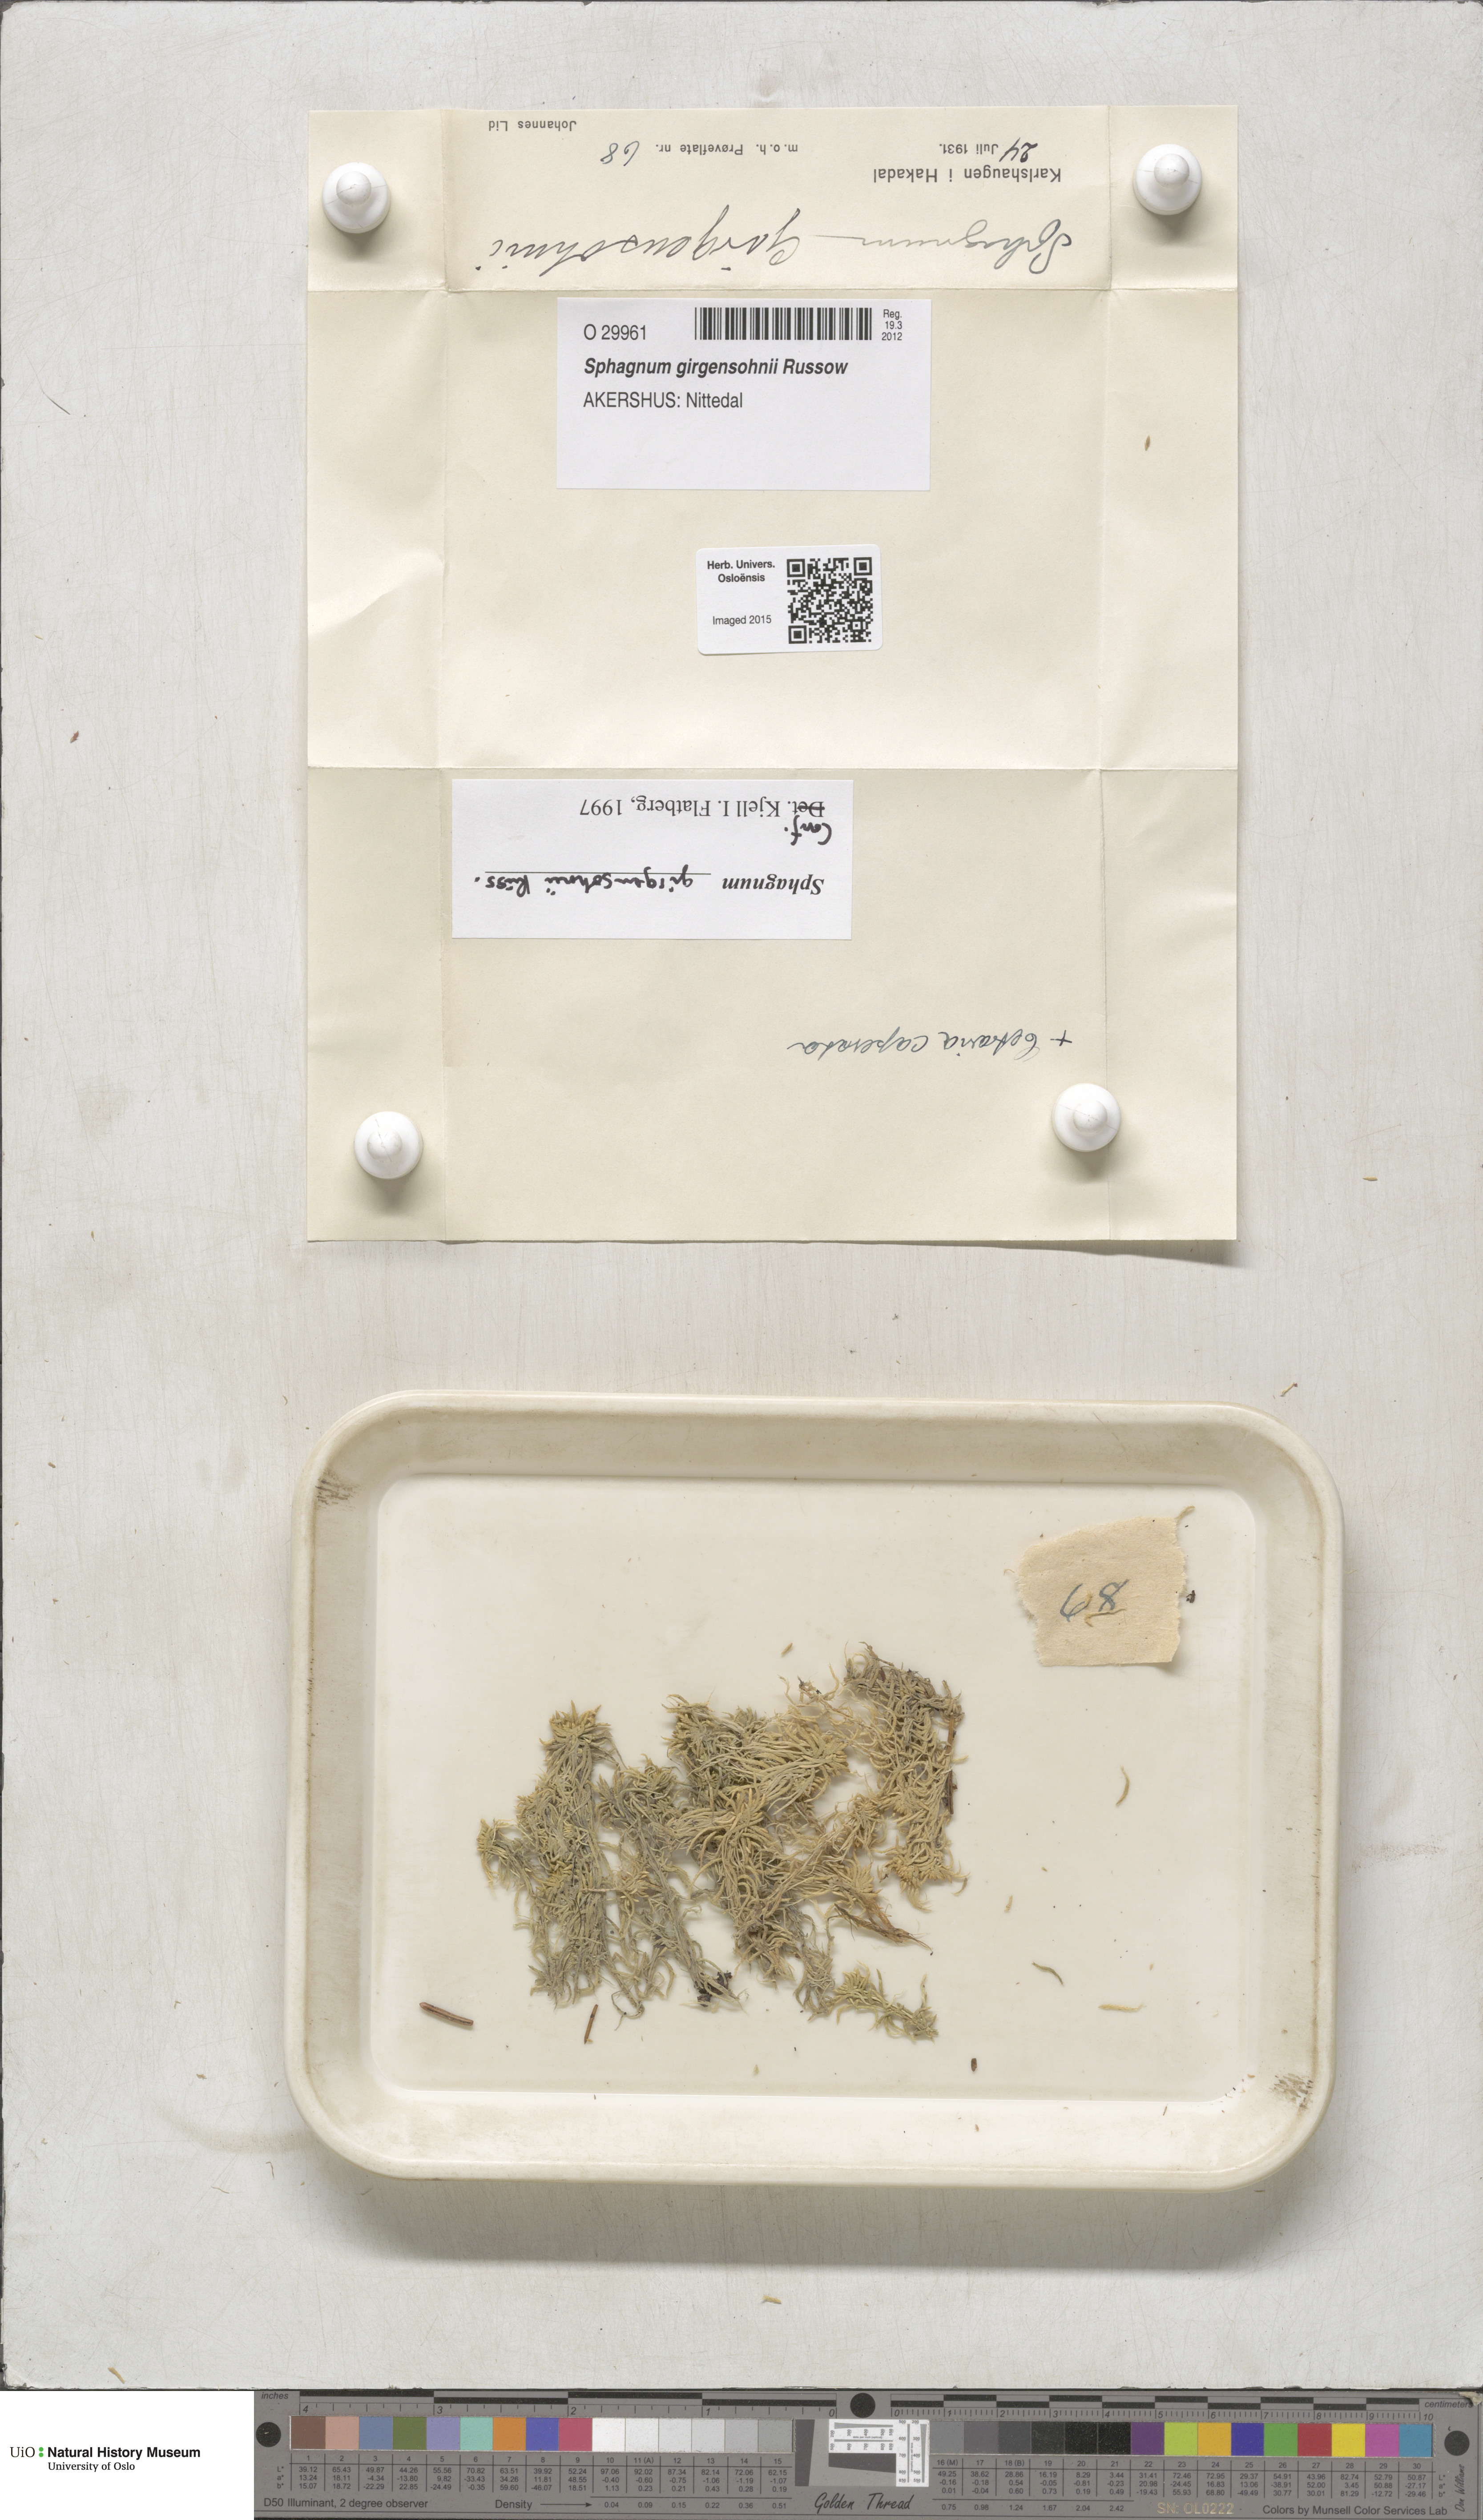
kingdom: Plantae
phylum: Bryophyta
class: Sphagnopsida
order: Sphagnales
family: Sphagnaceae
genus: Sphagnum
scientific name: Sphagnum girgensohnii
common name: Girgensohn's peat moss
